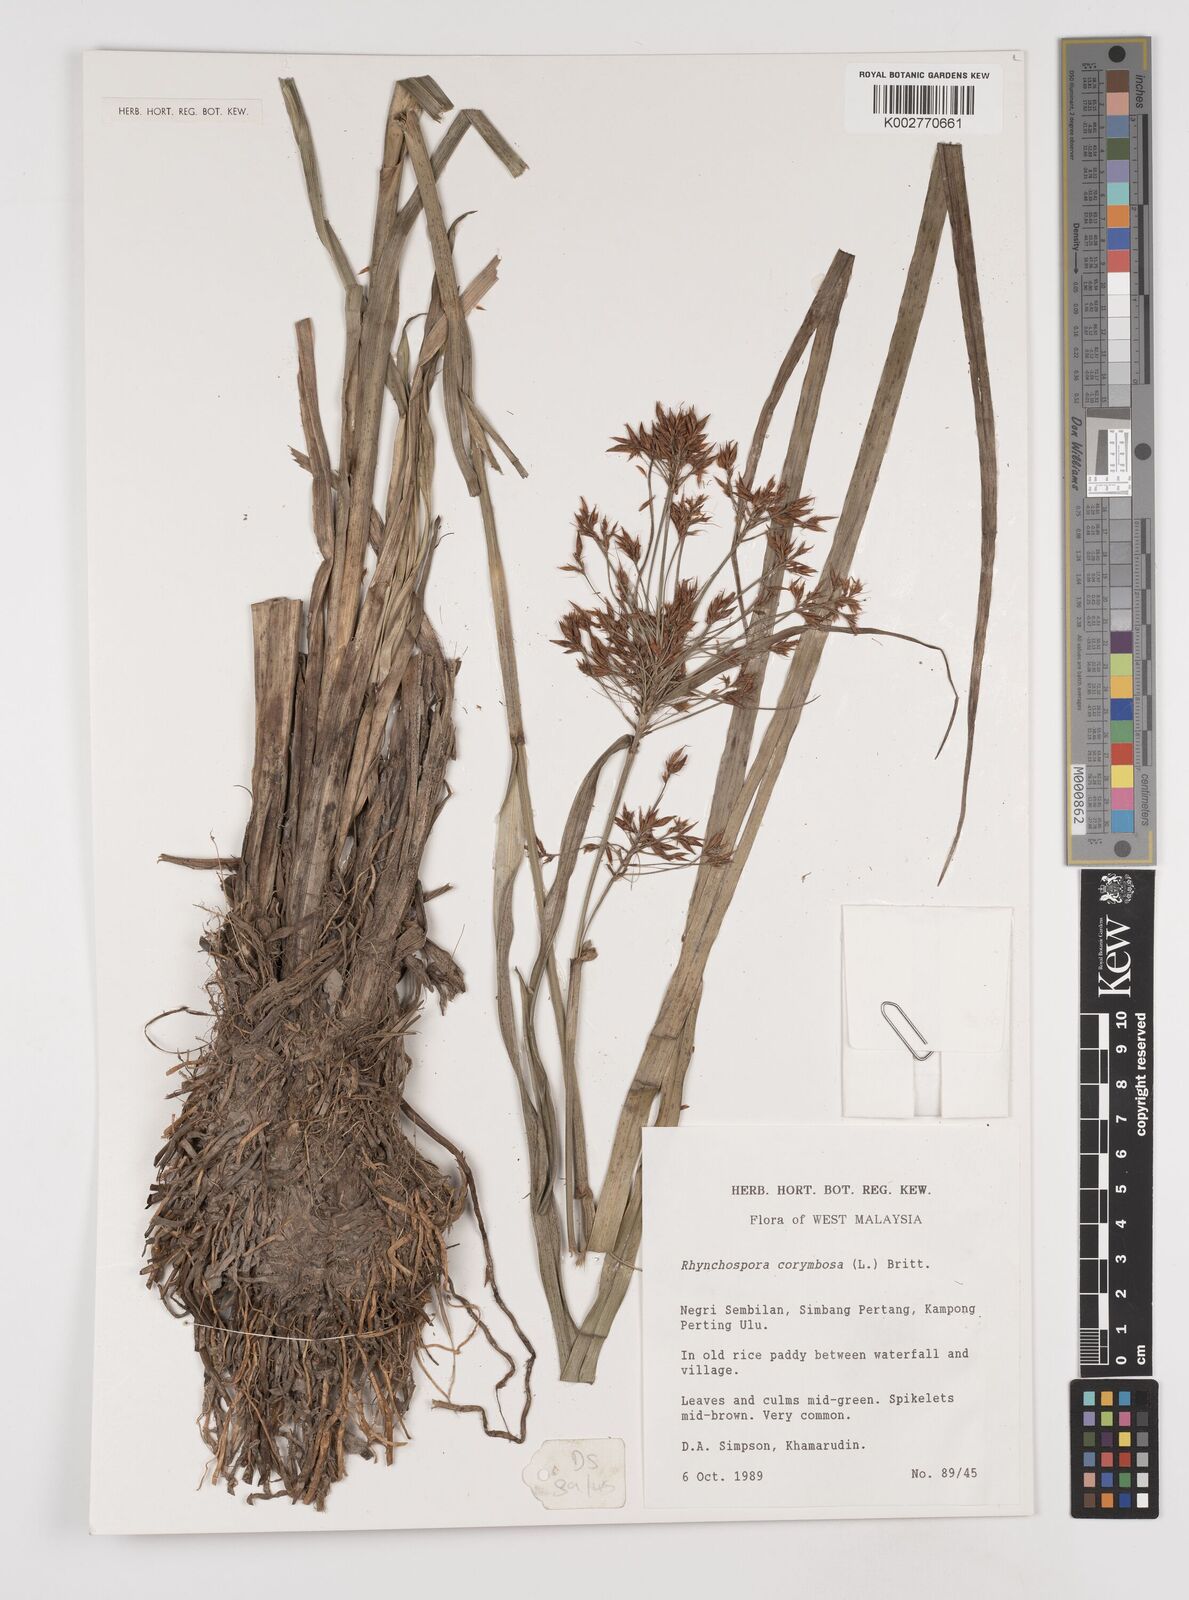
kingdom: Plantae
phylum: Tracheophyta
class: Liliopsida
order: Poales
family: Cyperaceae
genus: Rhynchospora
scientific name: Rhynchospora corymbosa
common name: Golden beak sedge
